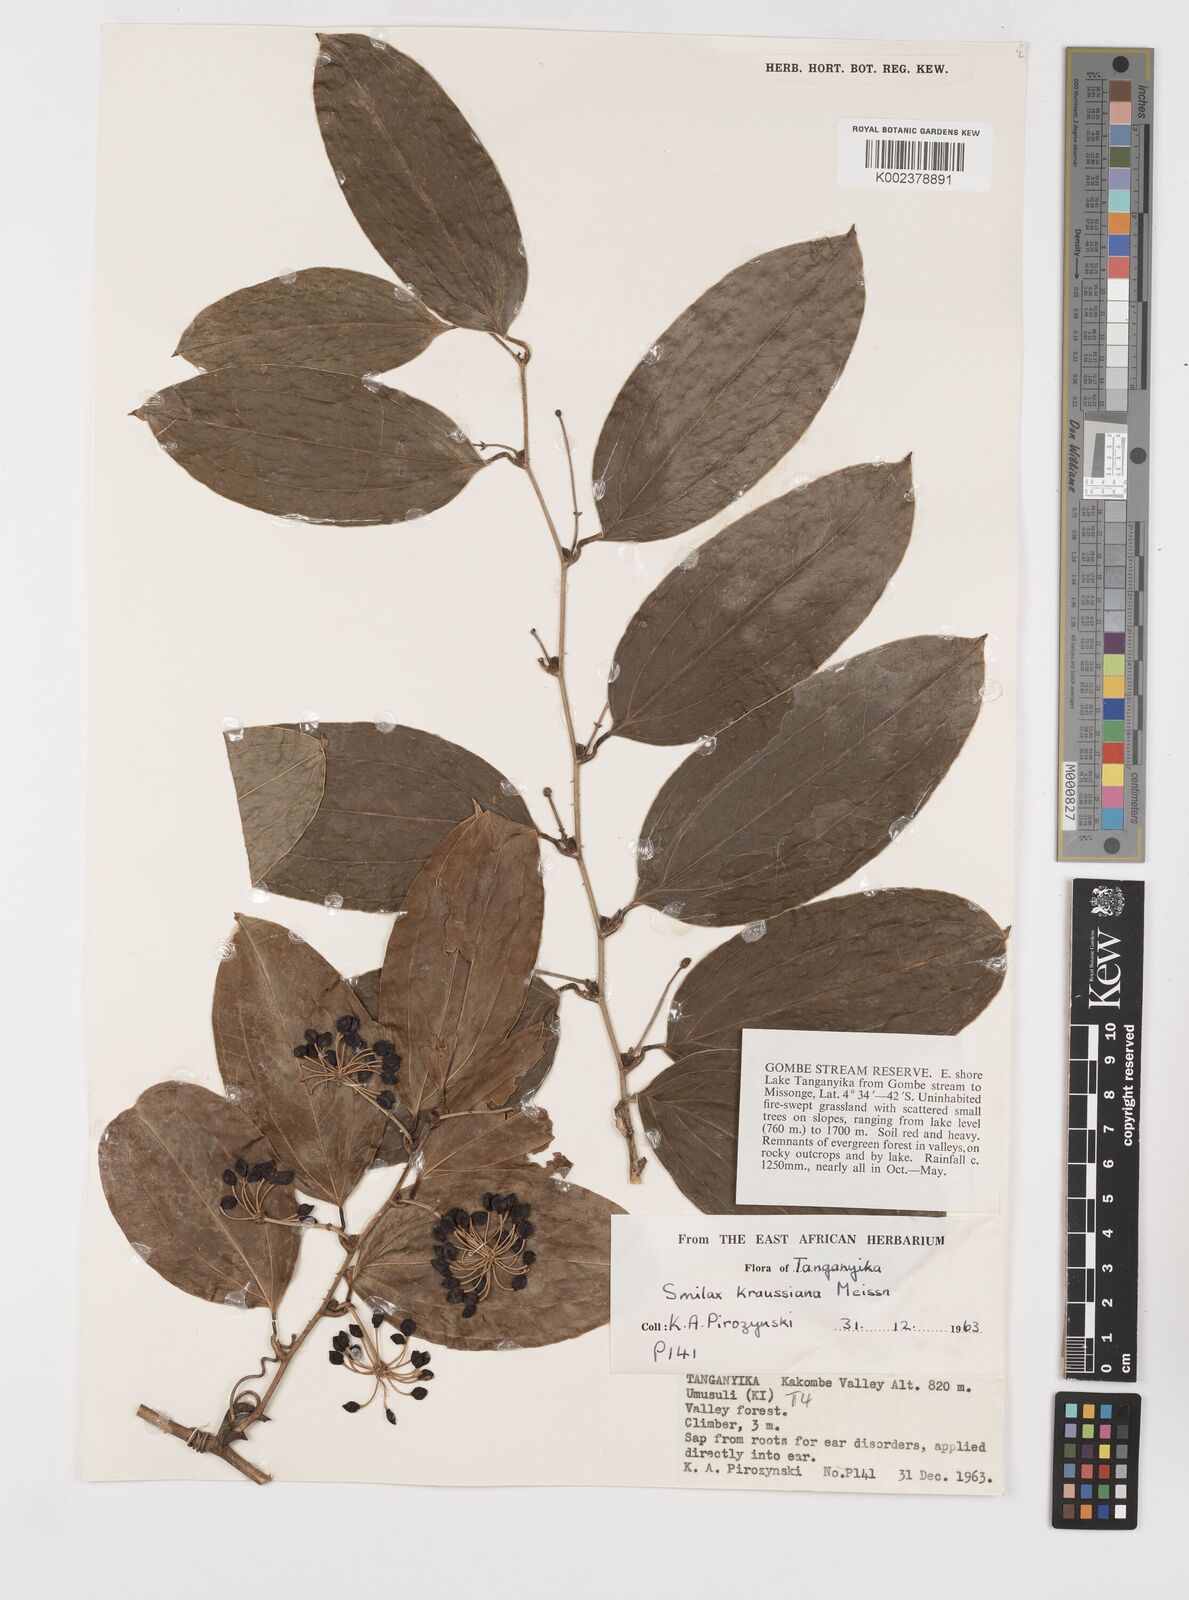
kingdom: Plantae
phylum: Tracheophyta
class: Liliopsida
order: Liliales
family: Smilacaceae
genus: Smilax
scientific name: Smilax anceps
